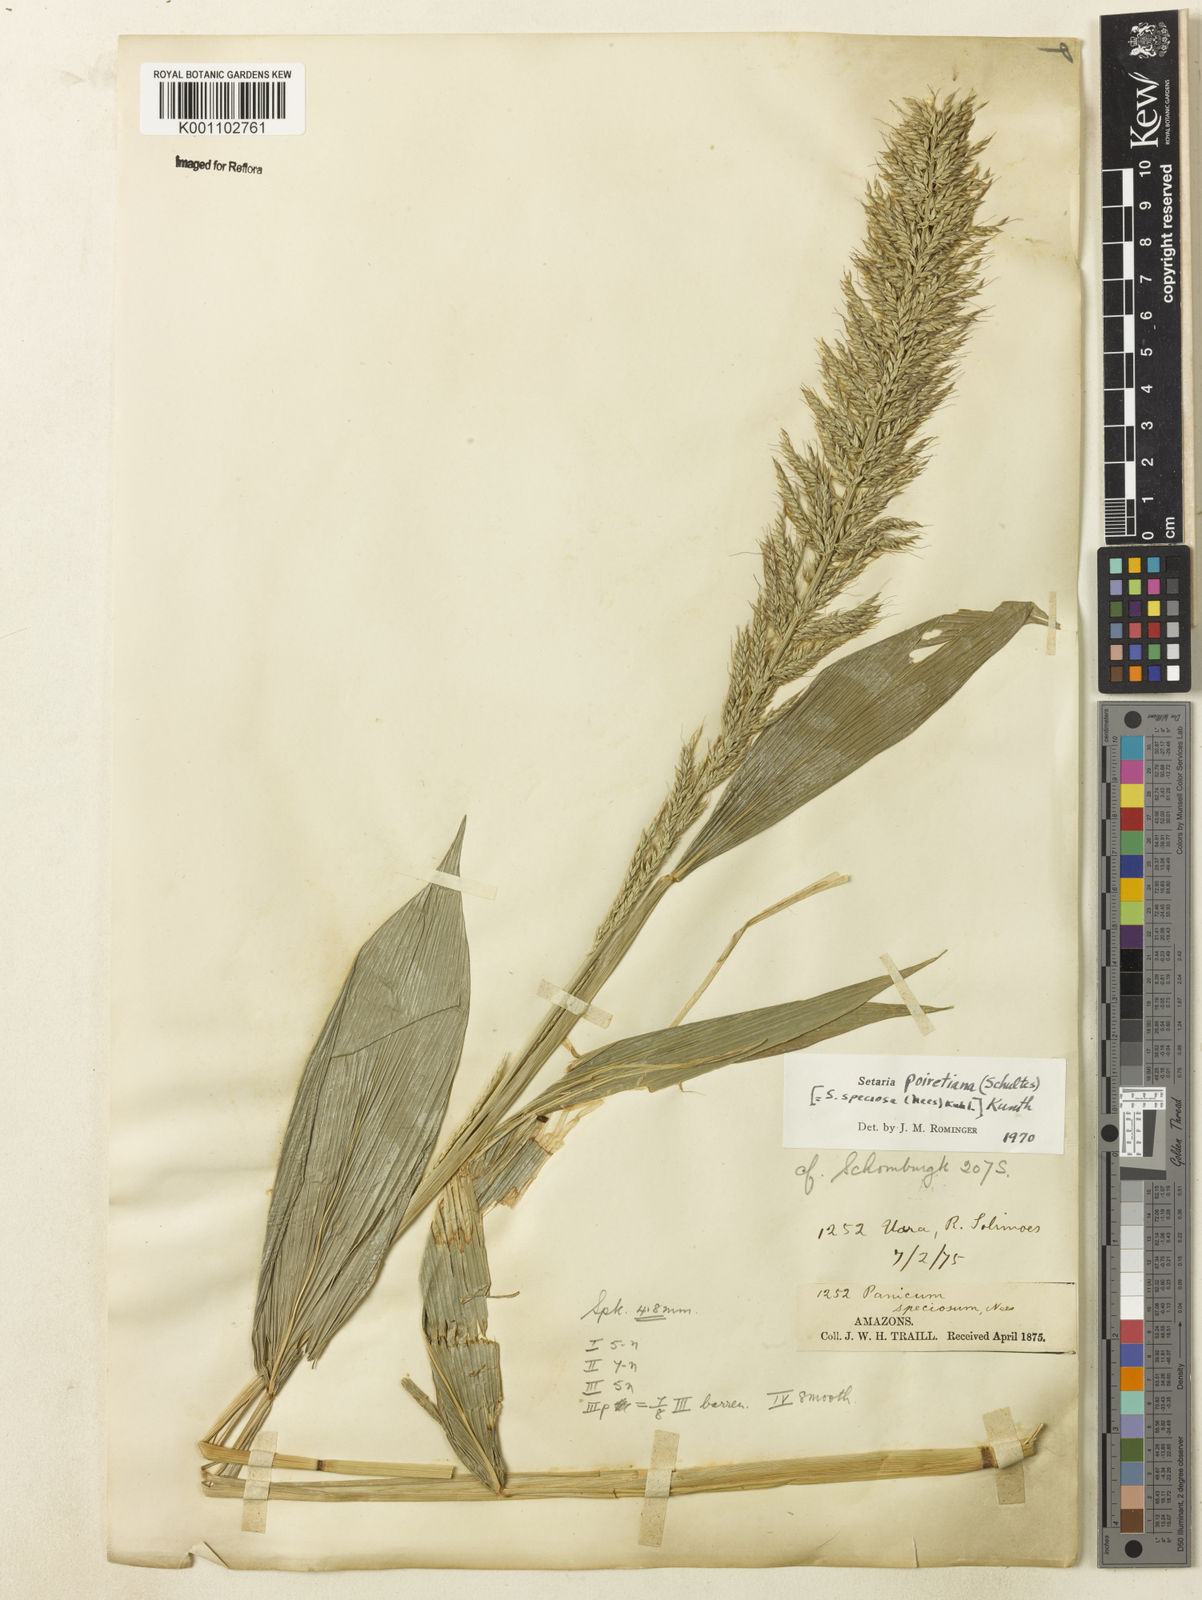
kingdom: Plantae
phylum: Tracheophyta
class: Liliopsida
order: Poales
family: Poaceae
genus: Setaria
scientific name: Setaria poiretiana
